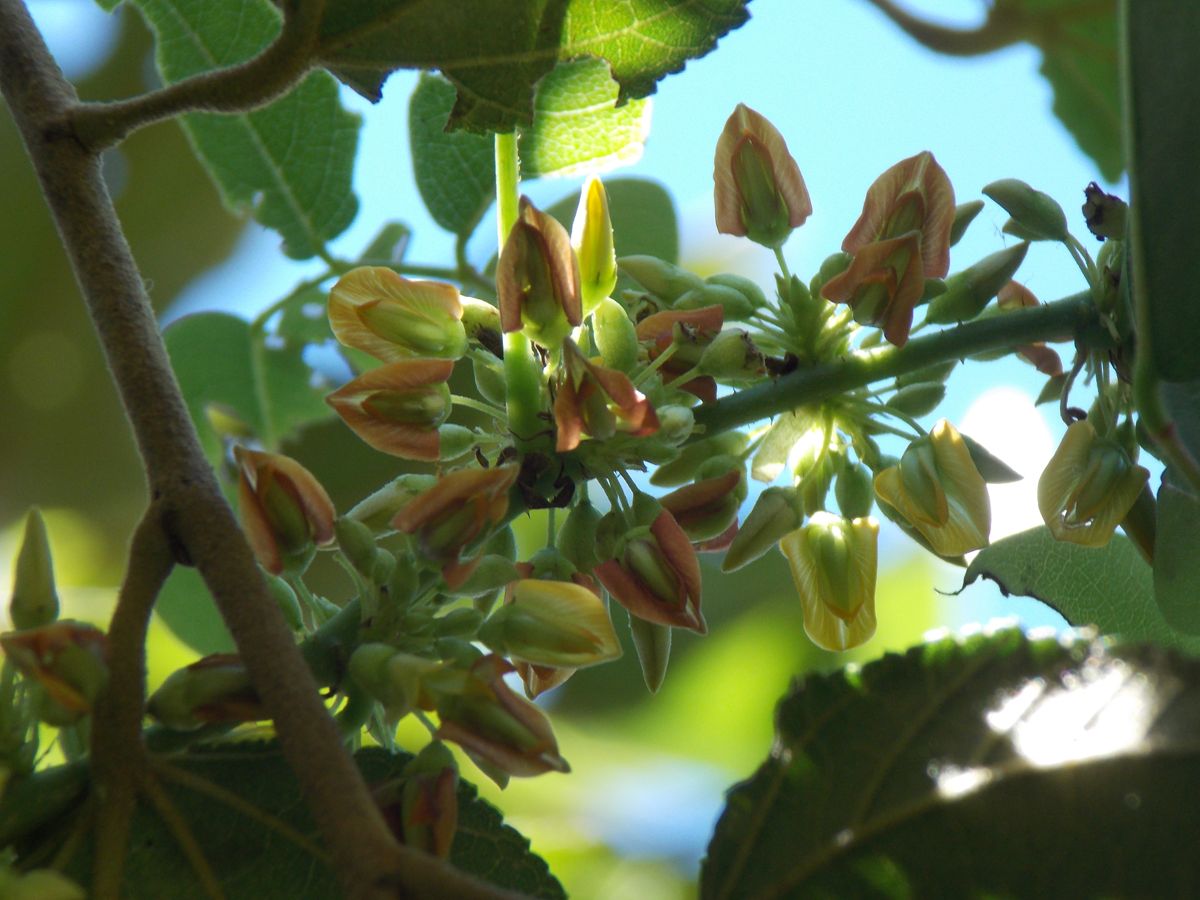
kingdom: Plantae
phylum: Tracheophyta
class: Magnoliopsida
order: Fabales
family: Fabaceae
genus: Nissolia
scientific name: Nissolia fruticosa
